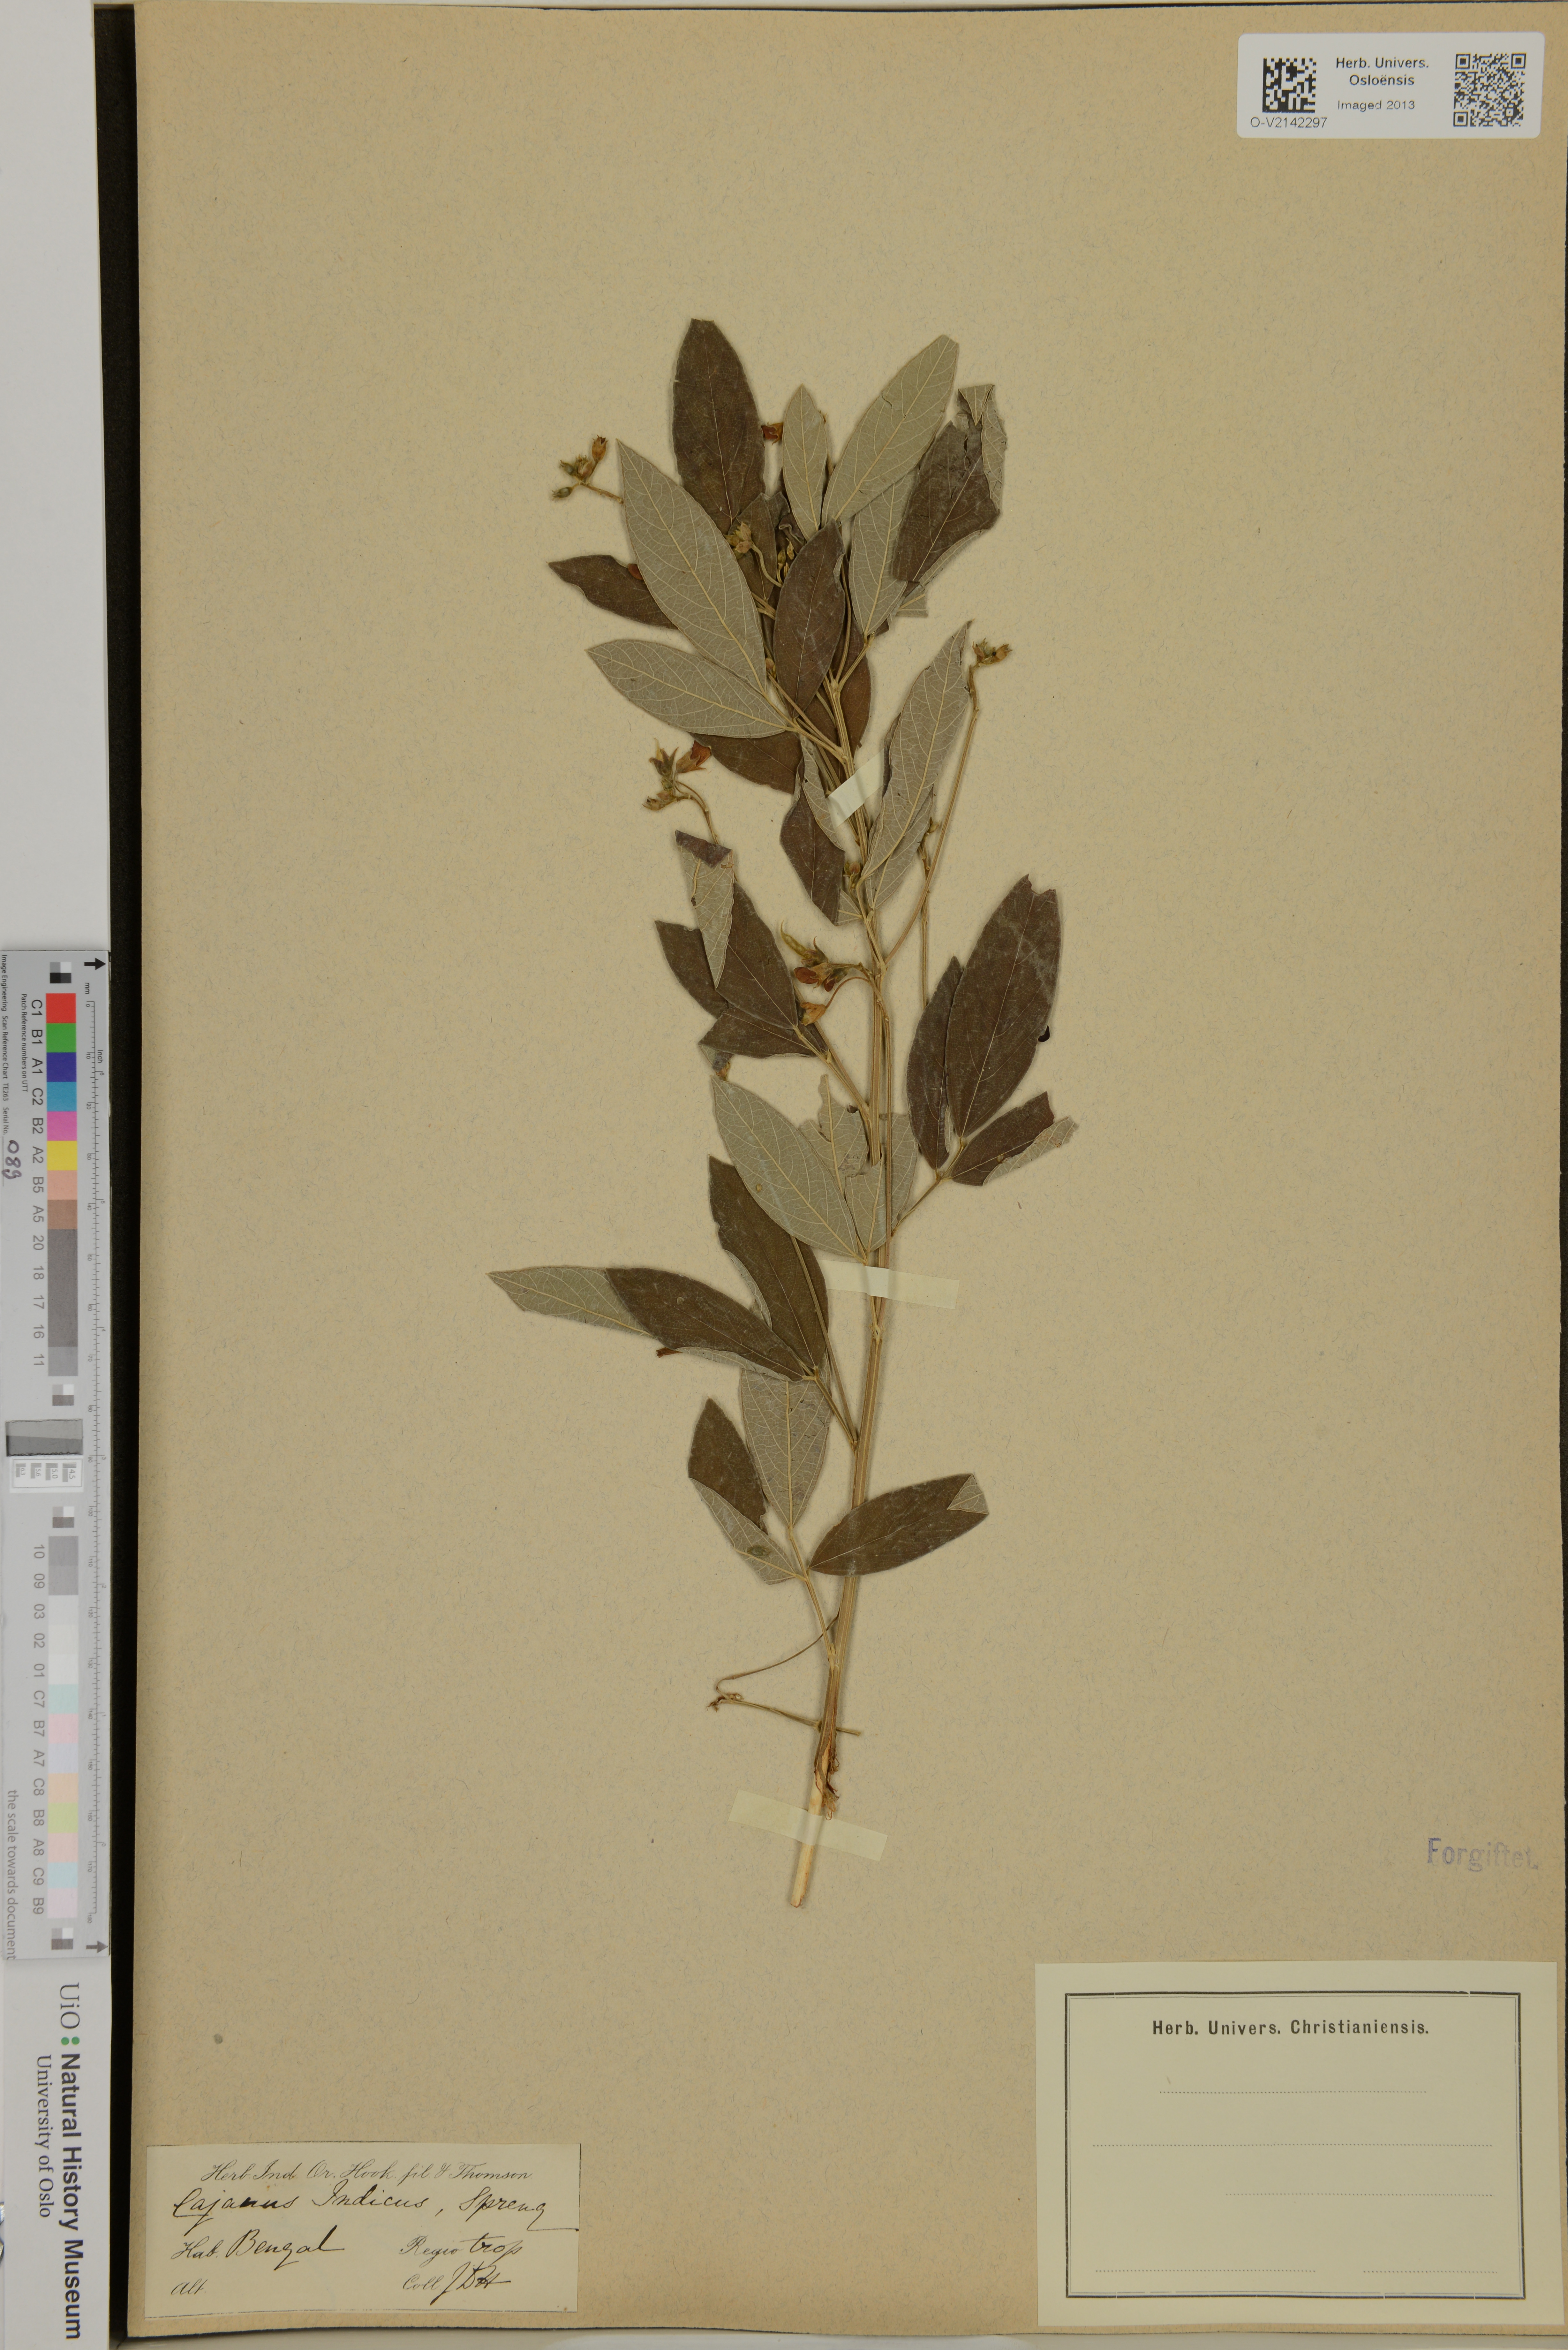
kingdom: Plantae
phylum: Tracheophyta
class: Magnoliopsida
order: Fabales
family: Fabaceae
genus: Cajanus
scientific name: Cajanus cajan
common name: Pigeonpea
